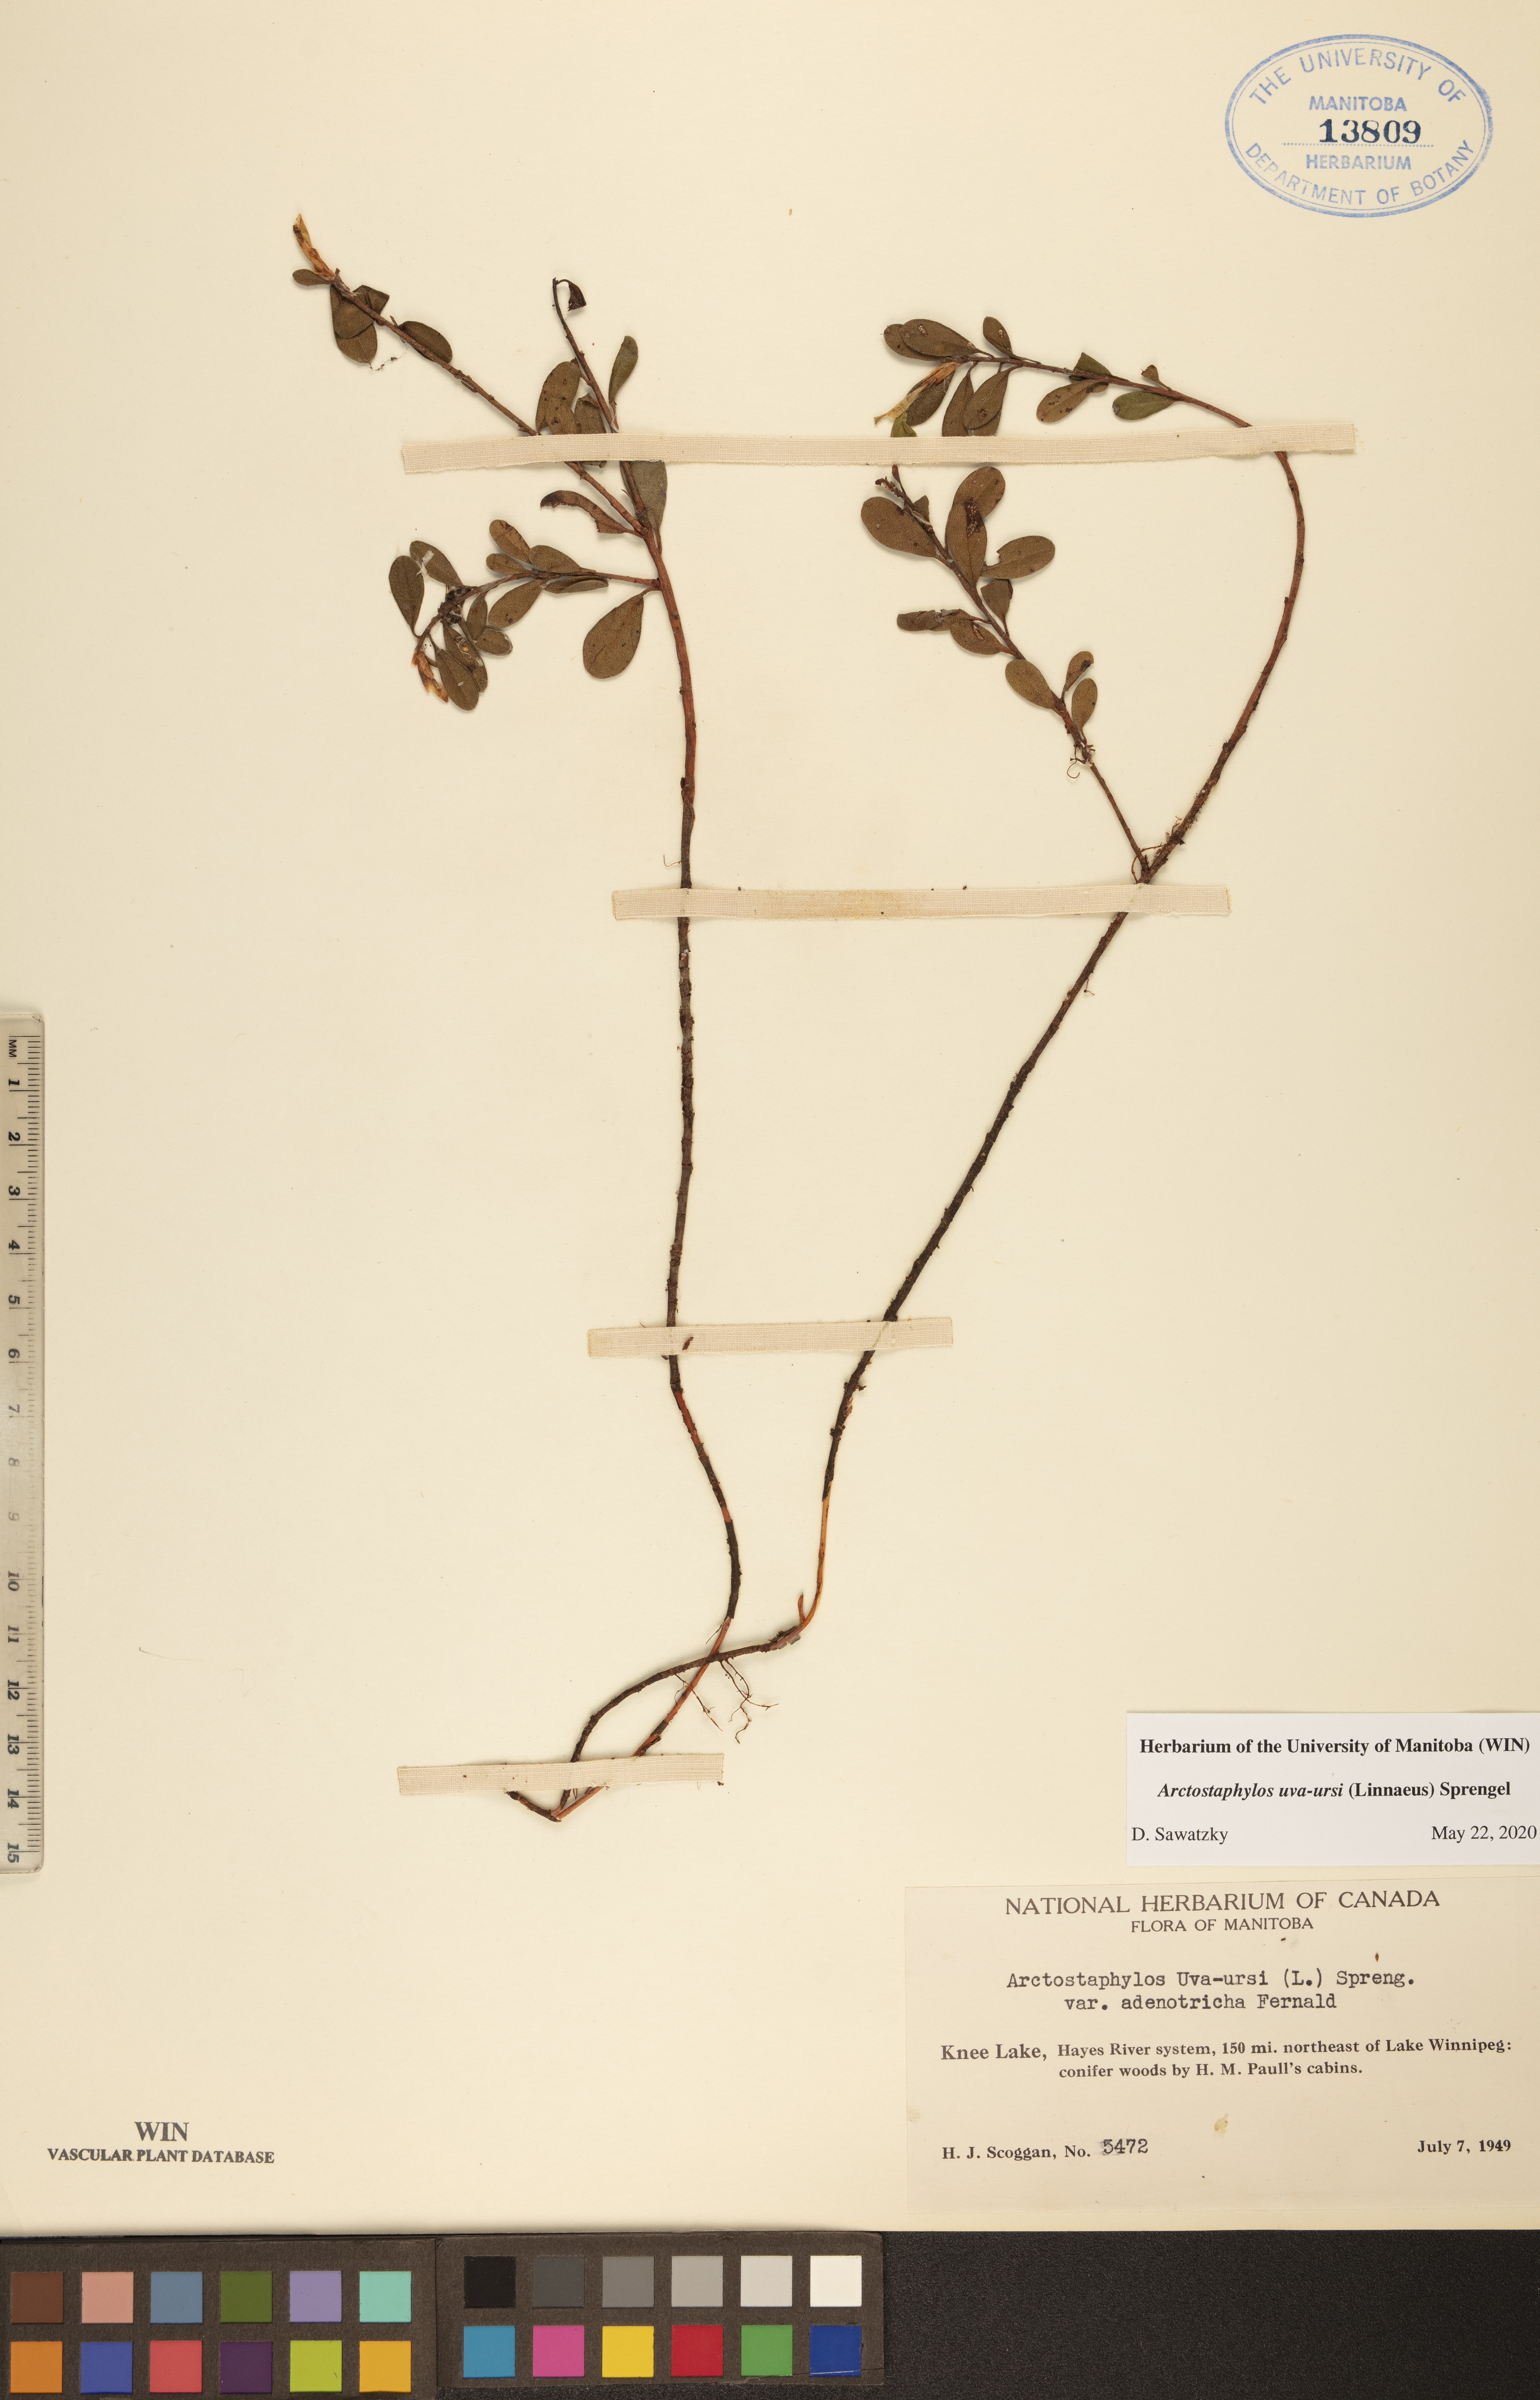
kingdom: Plantae
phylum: Tracheophyta
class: Magnoliopsida
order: Ericales
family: Ericaceae
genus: Arctostaphylos
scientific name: Arctostaphylos uva-ursi
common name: Bearberry
